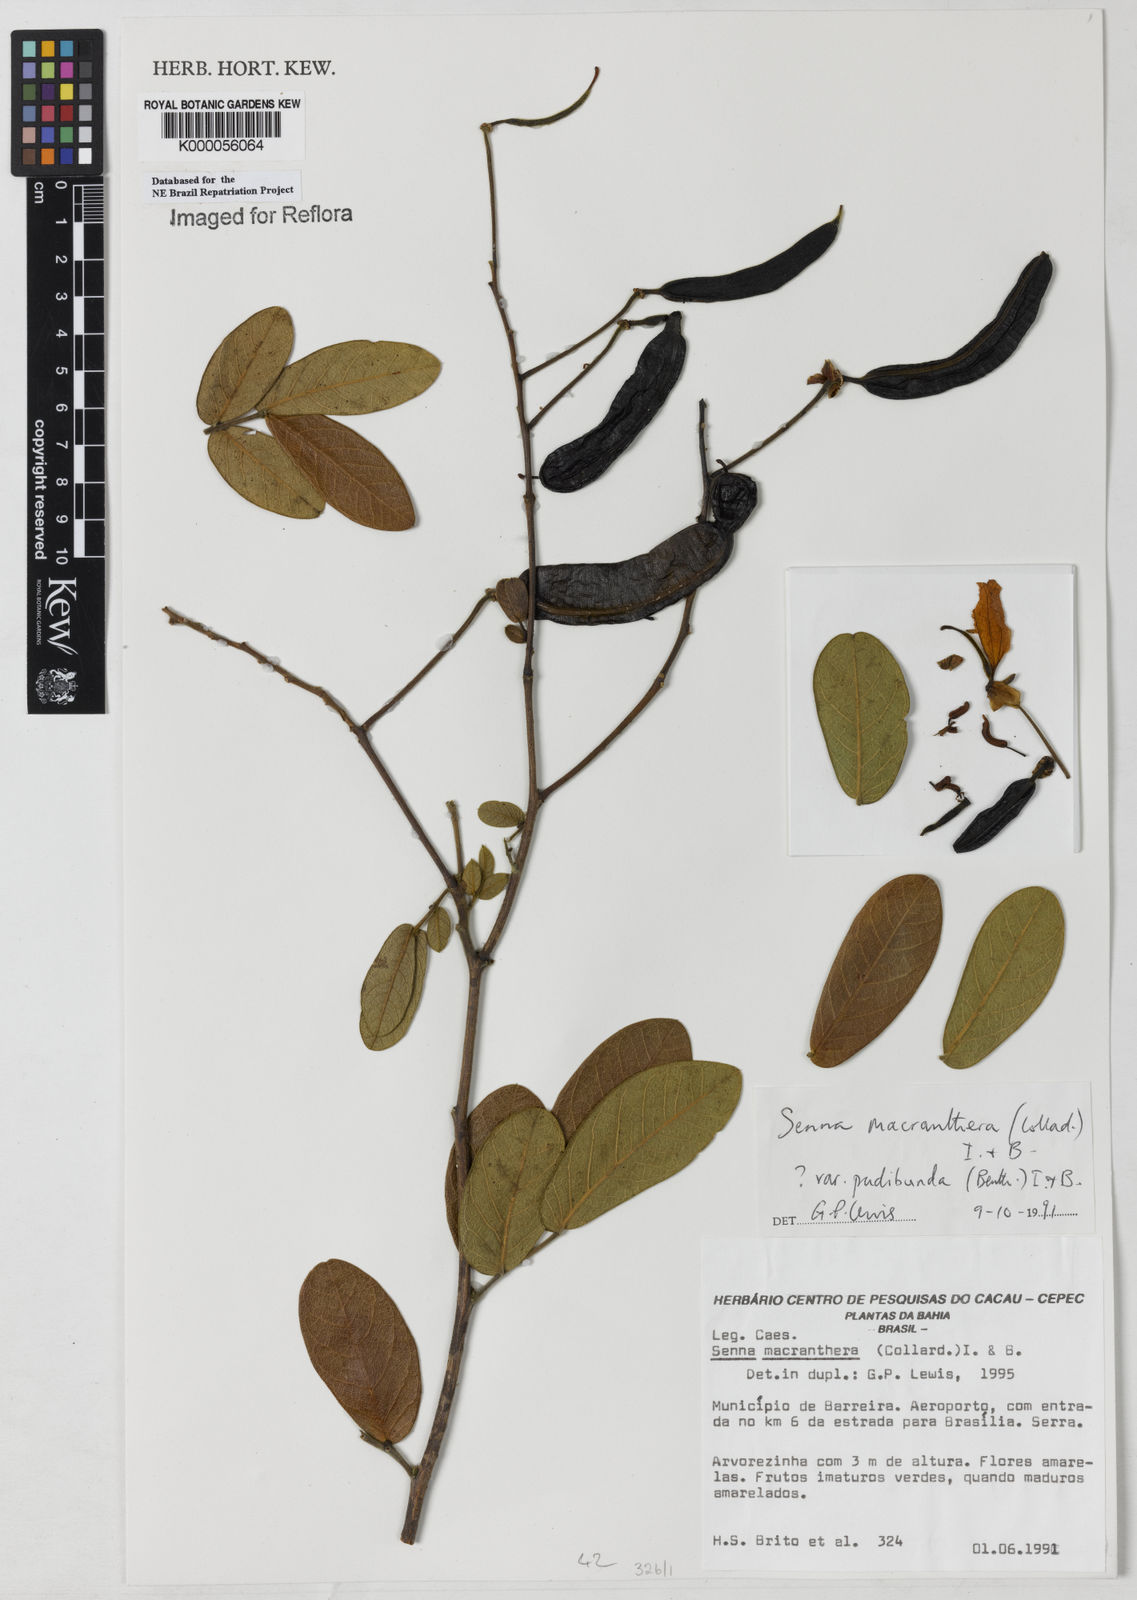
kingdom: Plantae
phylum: Tracheophyta
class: Magnoliopsida
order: Fabales
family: Fabaceae
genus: Senna
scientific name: Senna rugosa
